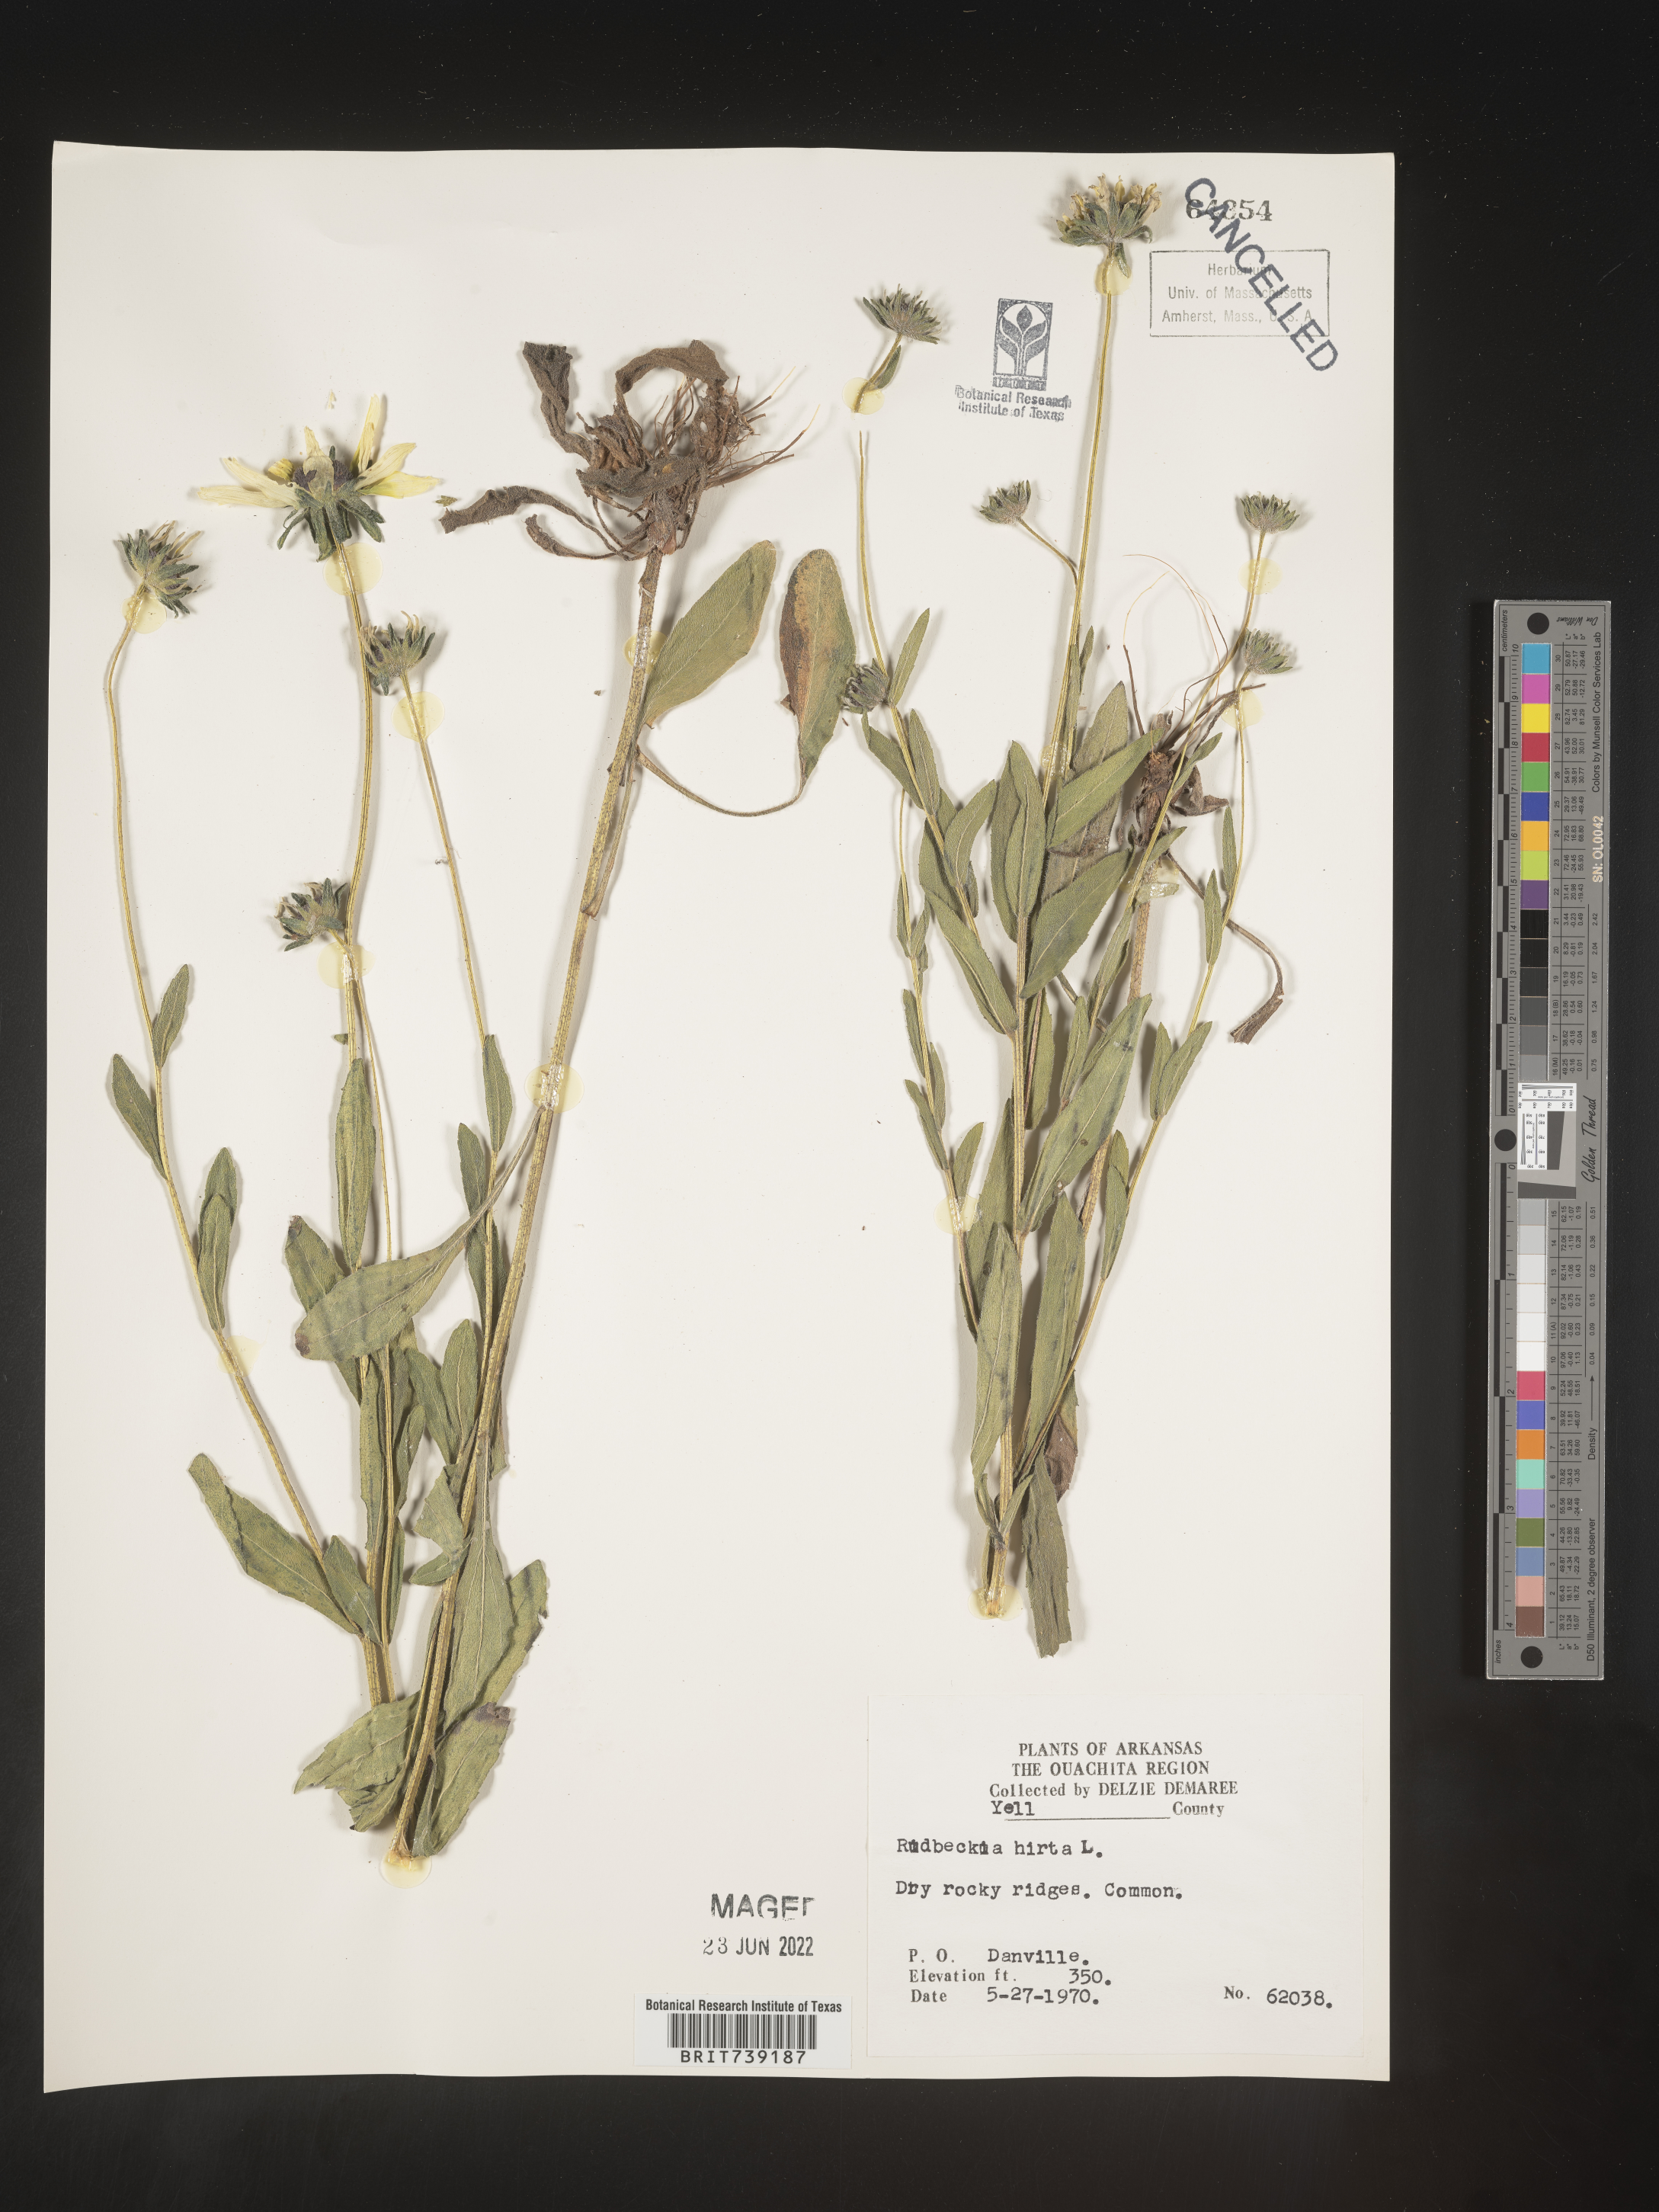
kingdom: Plantae
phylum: Tracheophyta
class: Magnoliopsida
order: Asterales
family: Asteraceae
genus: Rudbeckia
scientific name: Rudbeckia hirta
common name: Black-eyed-susan
